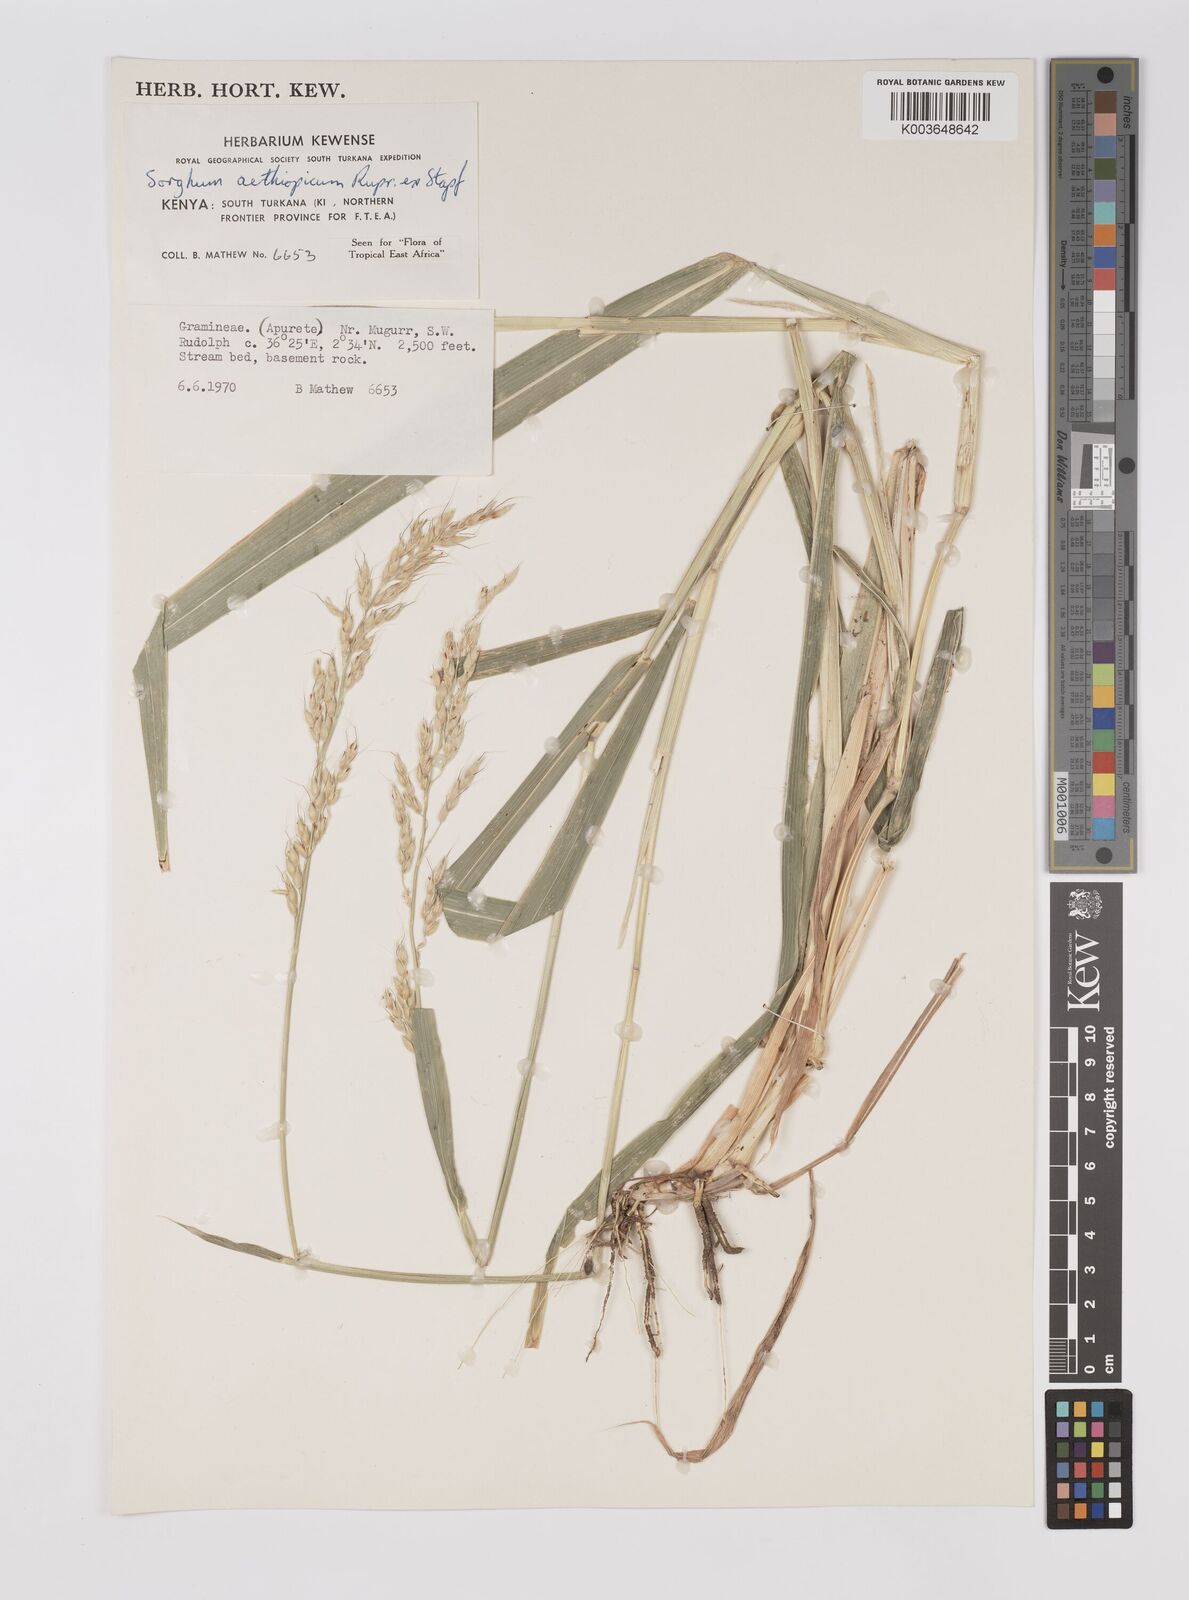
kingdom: Plantae
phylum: Tracheophyta
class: Liliopsida
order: Poales
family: Poaceae
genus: Sorghum
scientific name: Sorghum arundinaceum
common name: Sorghum
